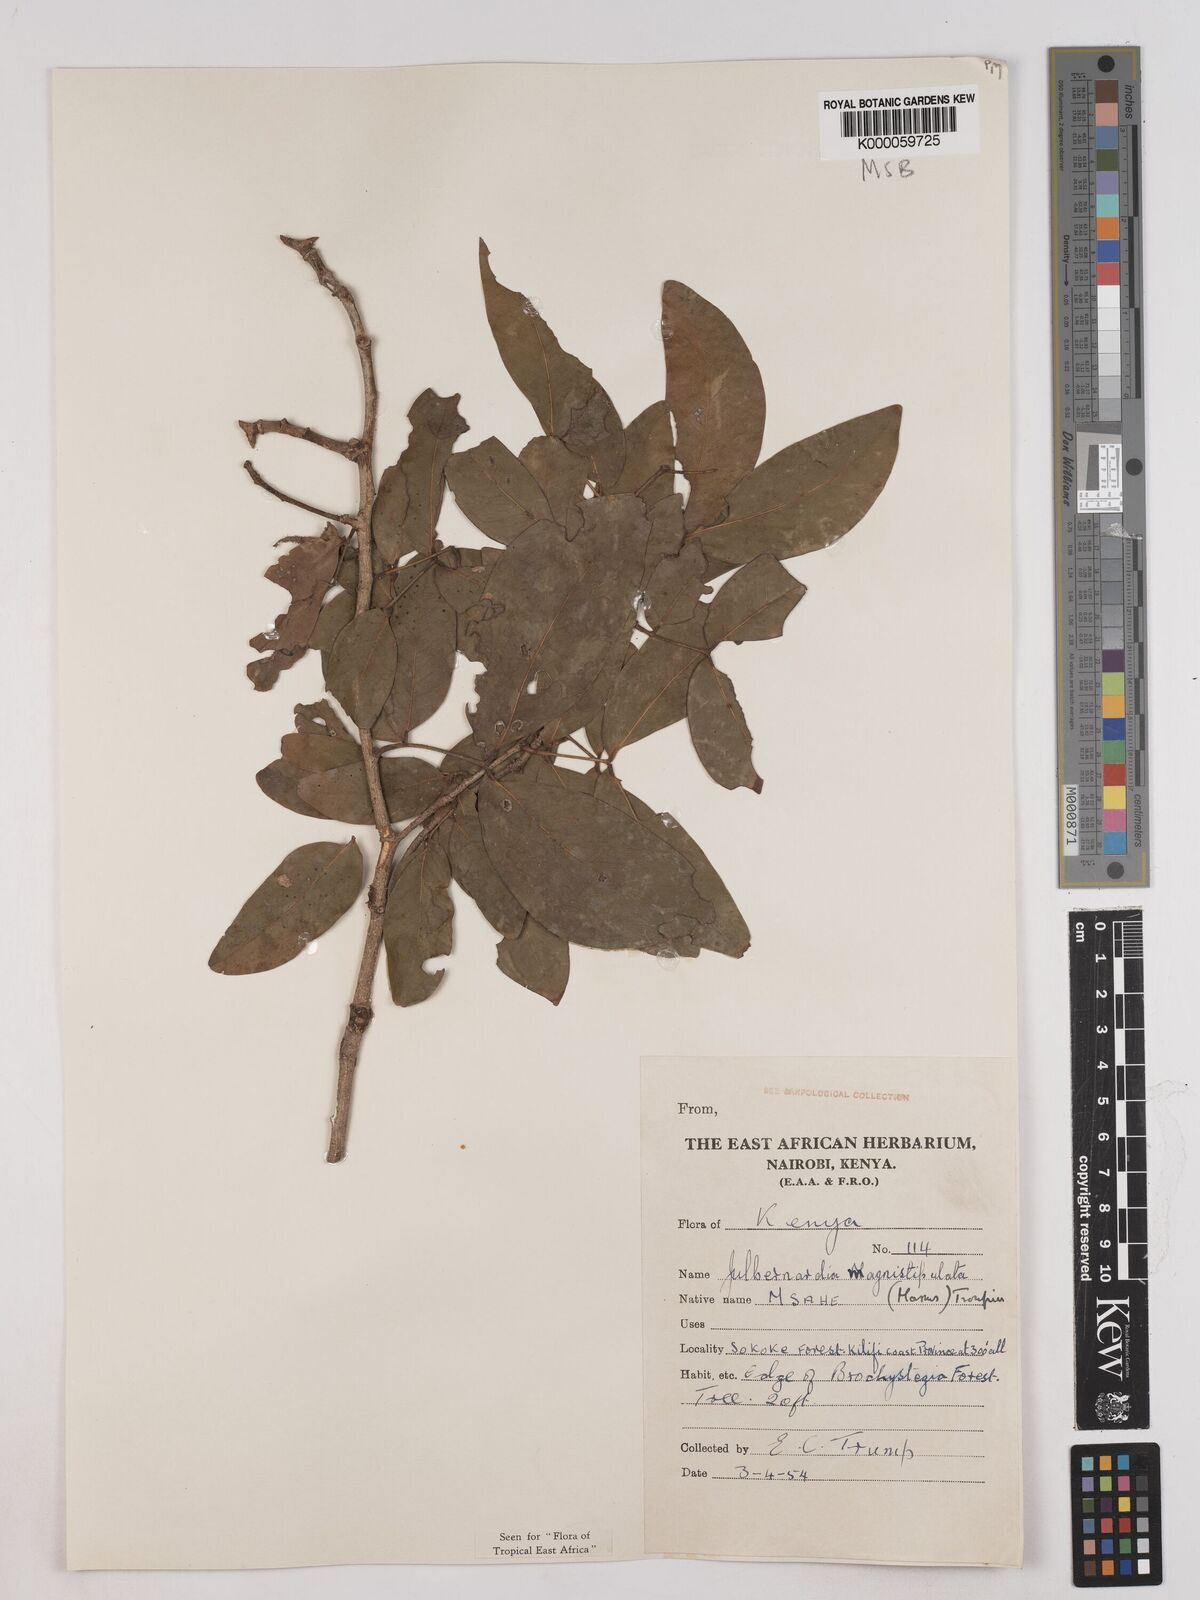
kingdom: Plantae
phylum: Tracheophyta
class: Magnoliopsida
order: Fabales
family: Fabaceae
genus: Julbernardia
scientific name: Julbernardia magnistipulata
